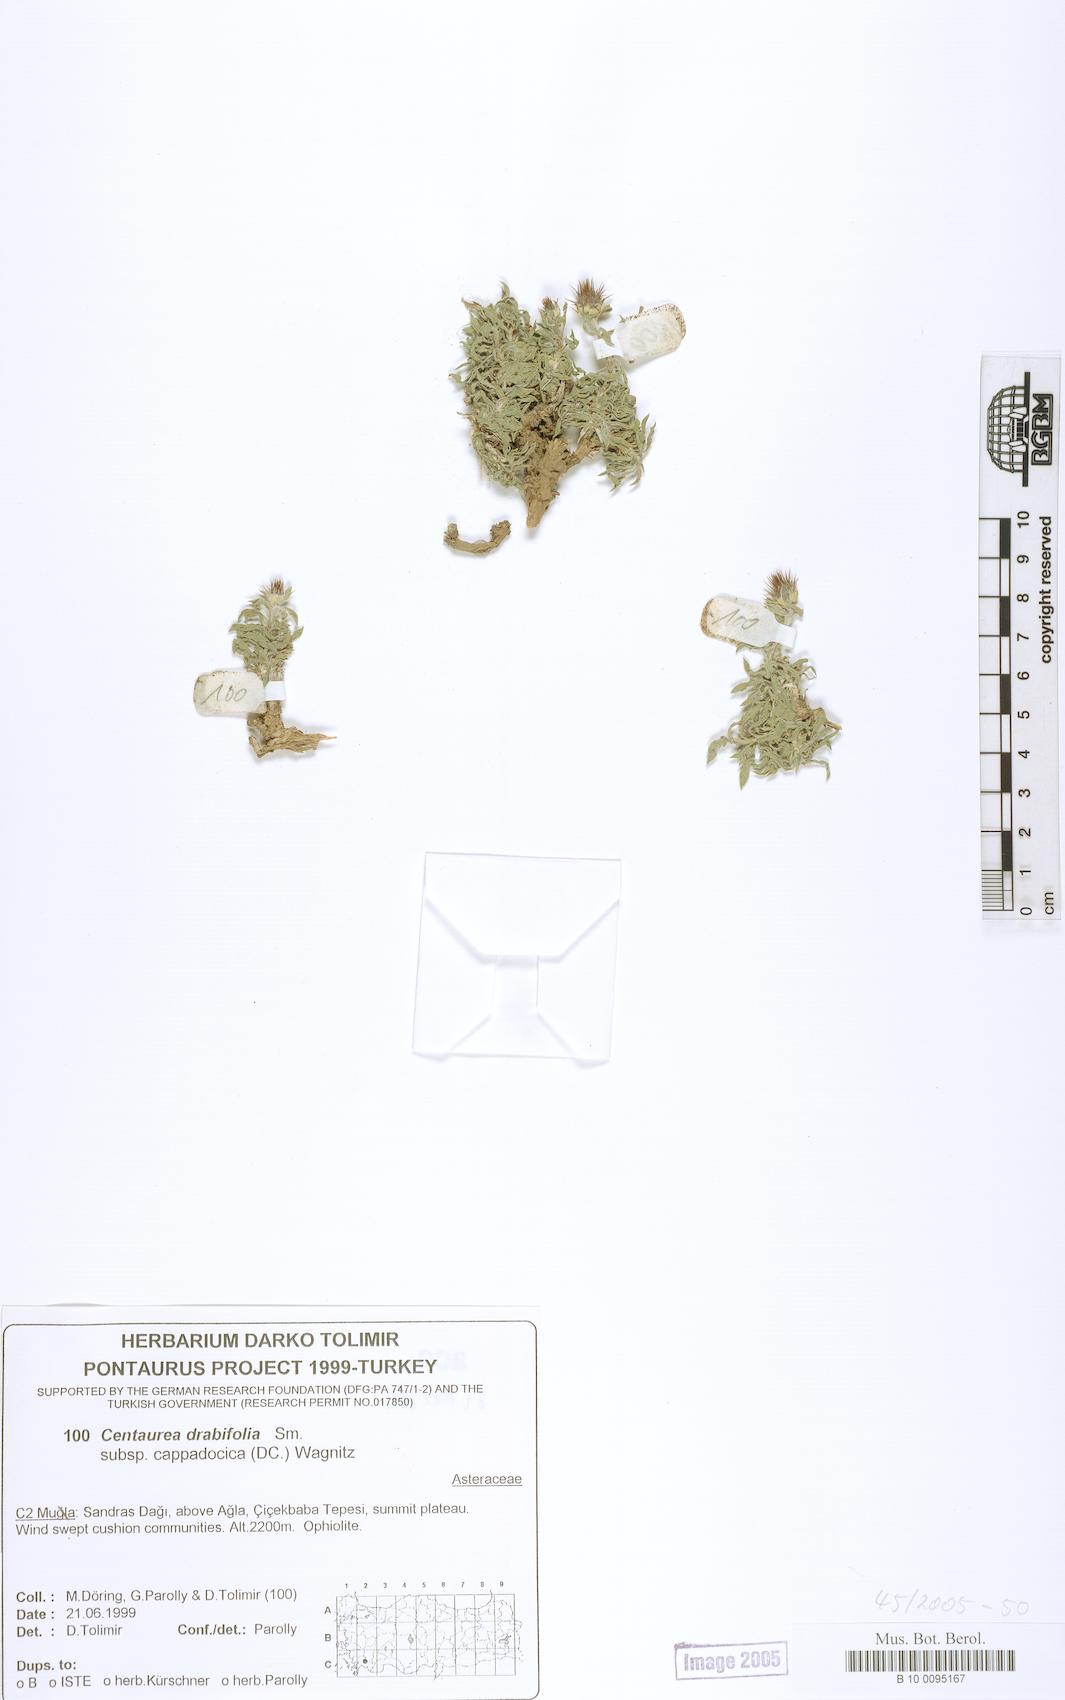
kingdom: Plantae
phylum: Tracheophyta
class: Magnoliopsida
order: Asterales
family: Asteraceae
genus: Centaurea
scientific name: Centaurea drabifolia
